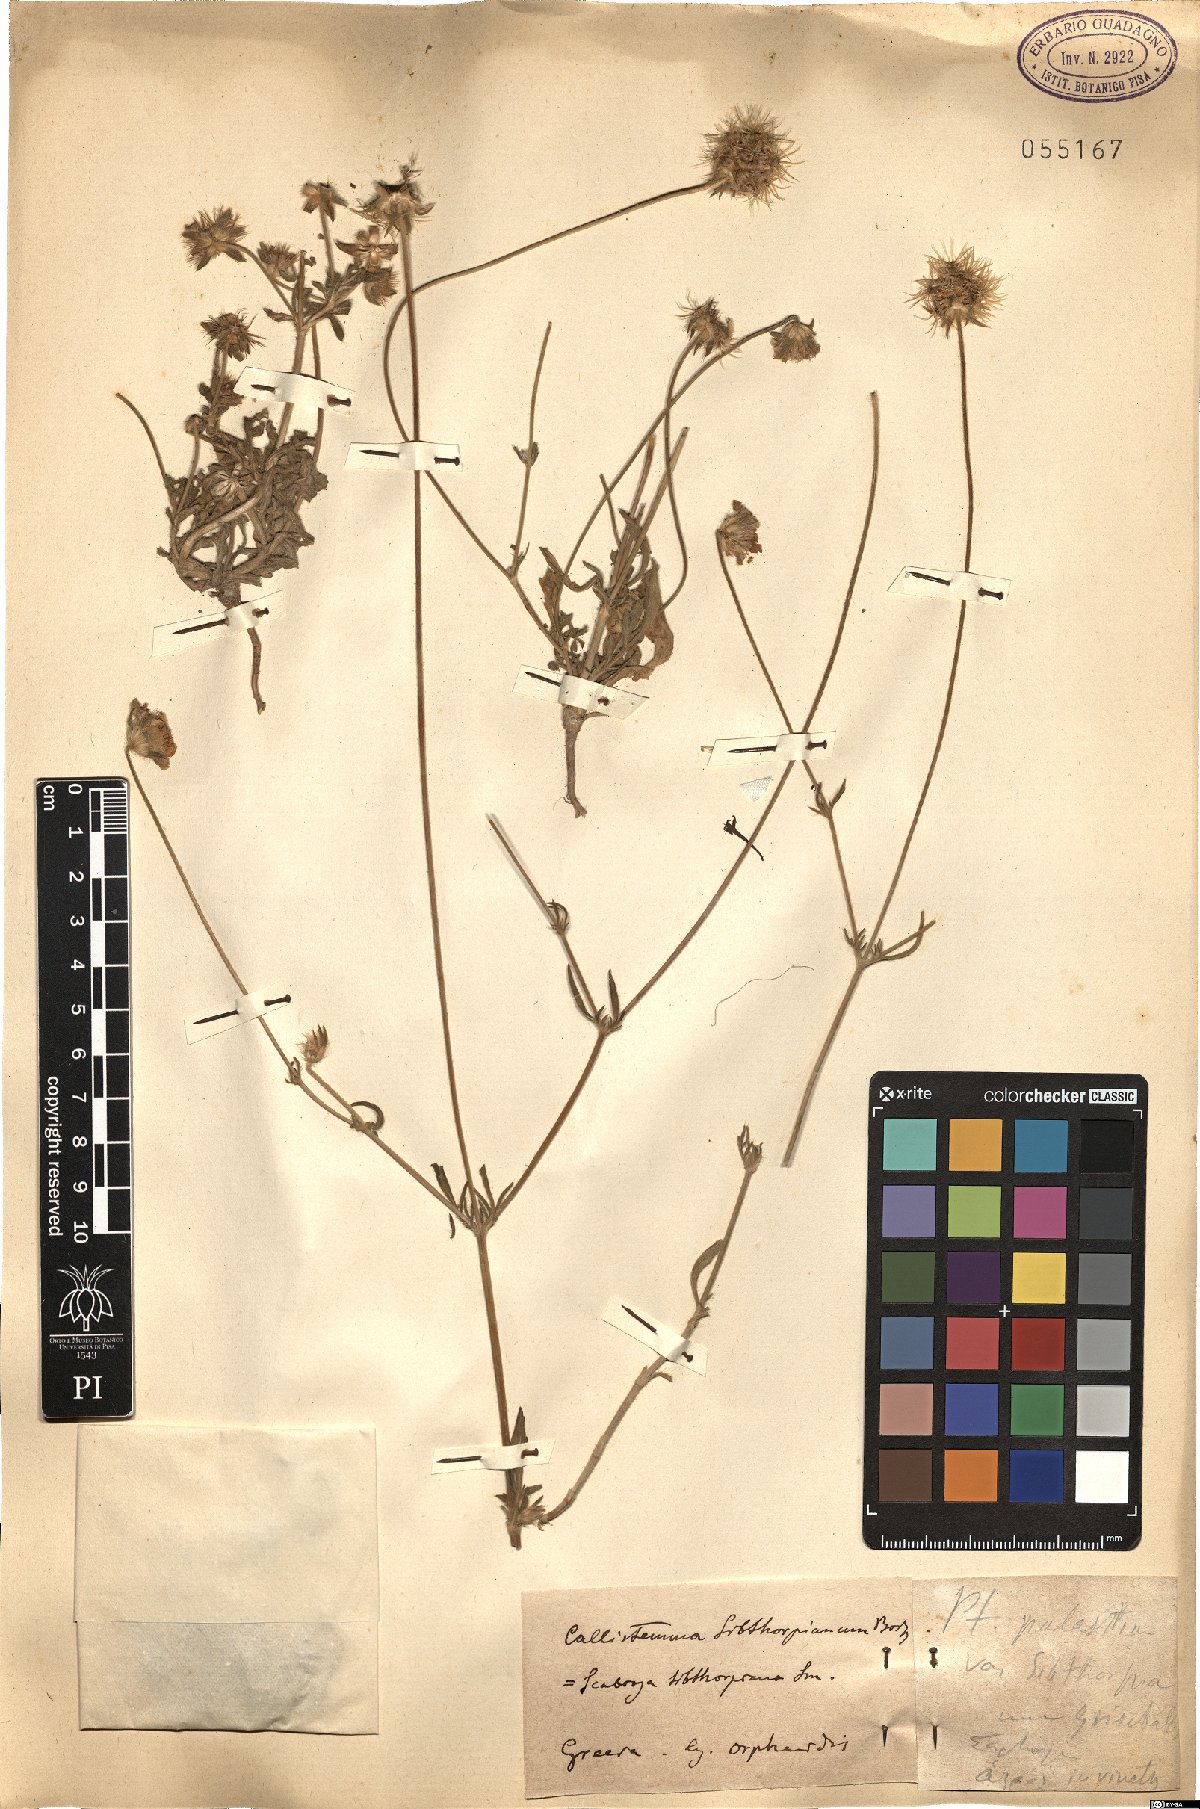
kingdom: Plantae
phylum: Tracheophyta
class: Magnoliopsida
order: Dipsacales
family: Caprifoliaceae
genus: Lomelosia
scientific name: Lomelosia palaestina
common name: Balkan pincushions
